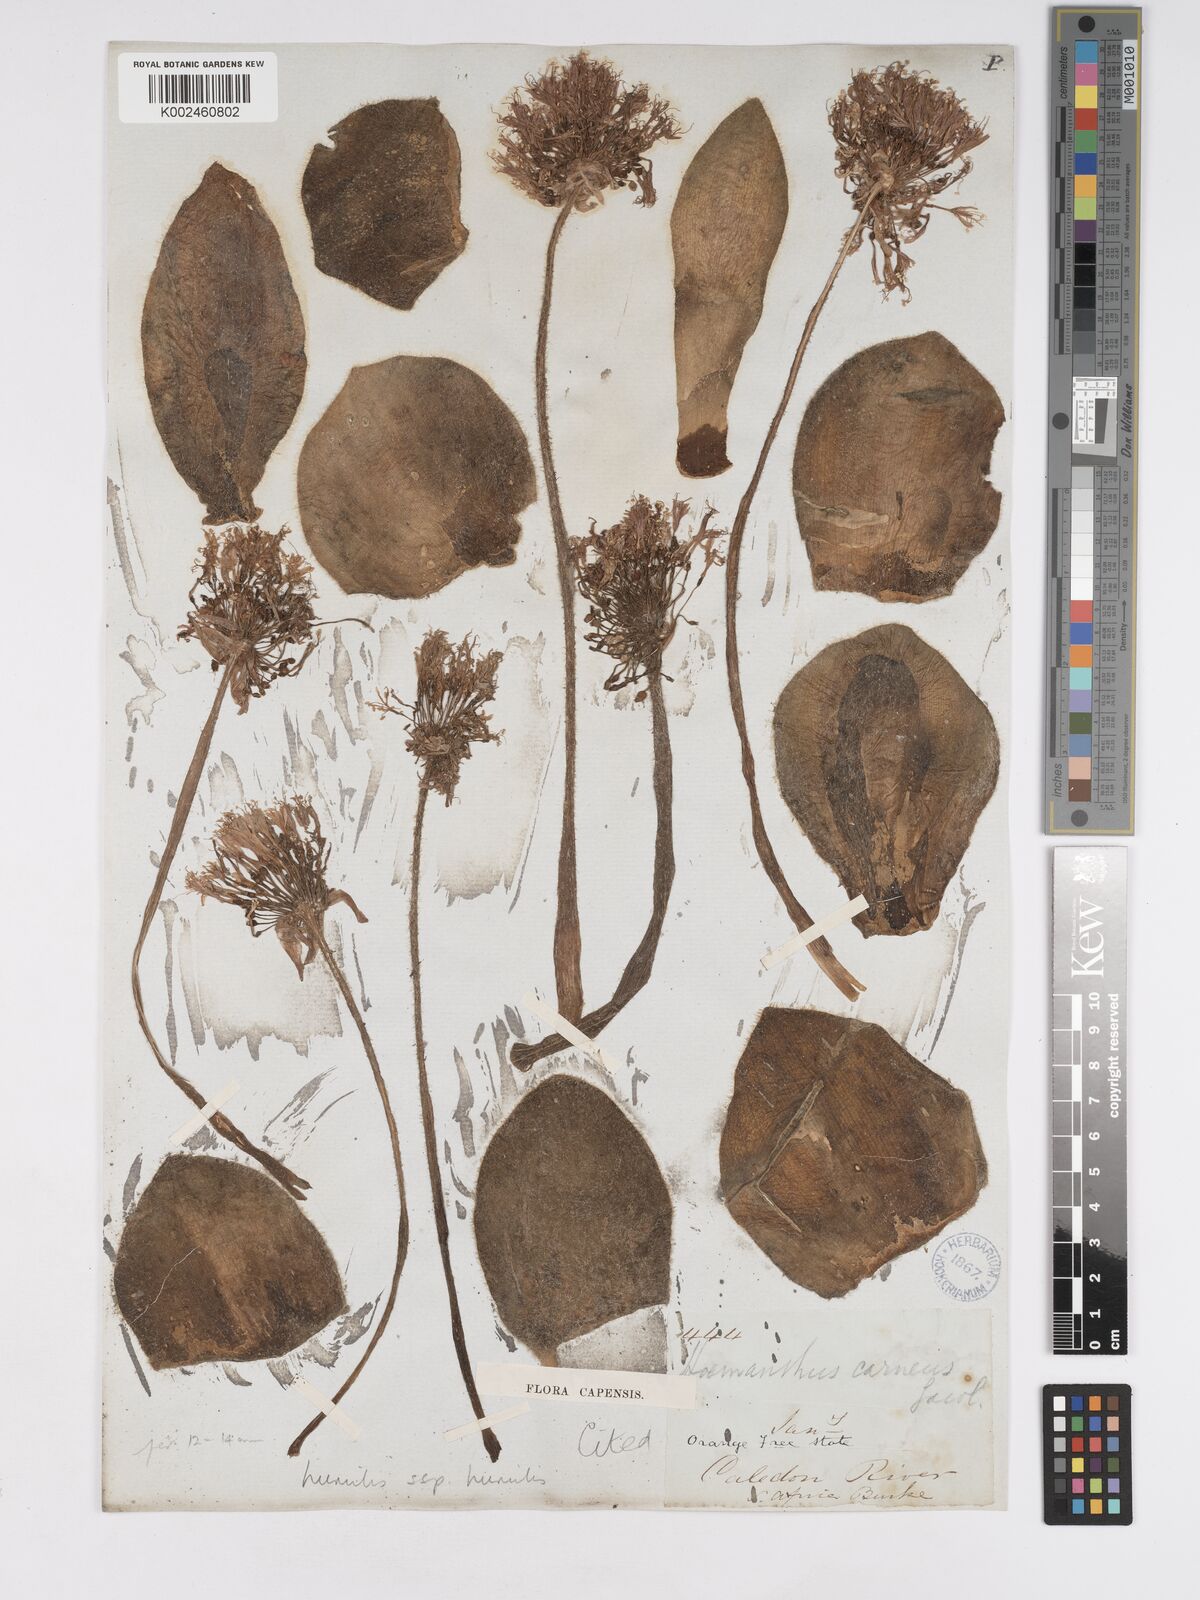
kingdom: Plantae
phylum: Tracheophyta
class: Liliopsida
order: Asparagales
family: Amaryllidaceae
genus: Haemanthus
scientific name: Haemanthus humilis
